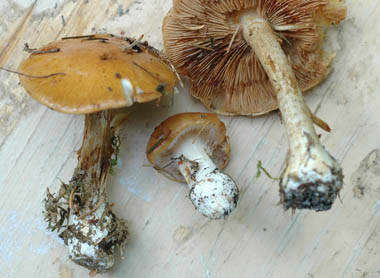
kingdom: Fungi
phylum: Basidiomycota
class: Agaricomycetes
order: Agaricales
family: Cortinariaceae
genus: Thaxterogaster
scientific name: Thaxterogaster multiformis
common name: honning-slørhat
